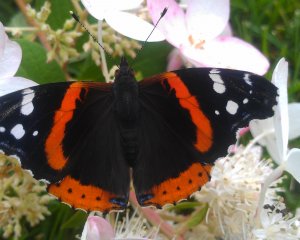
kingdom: Animalia
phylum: Arthropoda
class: Insecta
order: Lepidoptera
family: Nymphalidae
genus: Vanessa
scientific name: Vanessa atalanta
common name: Red Admiral
